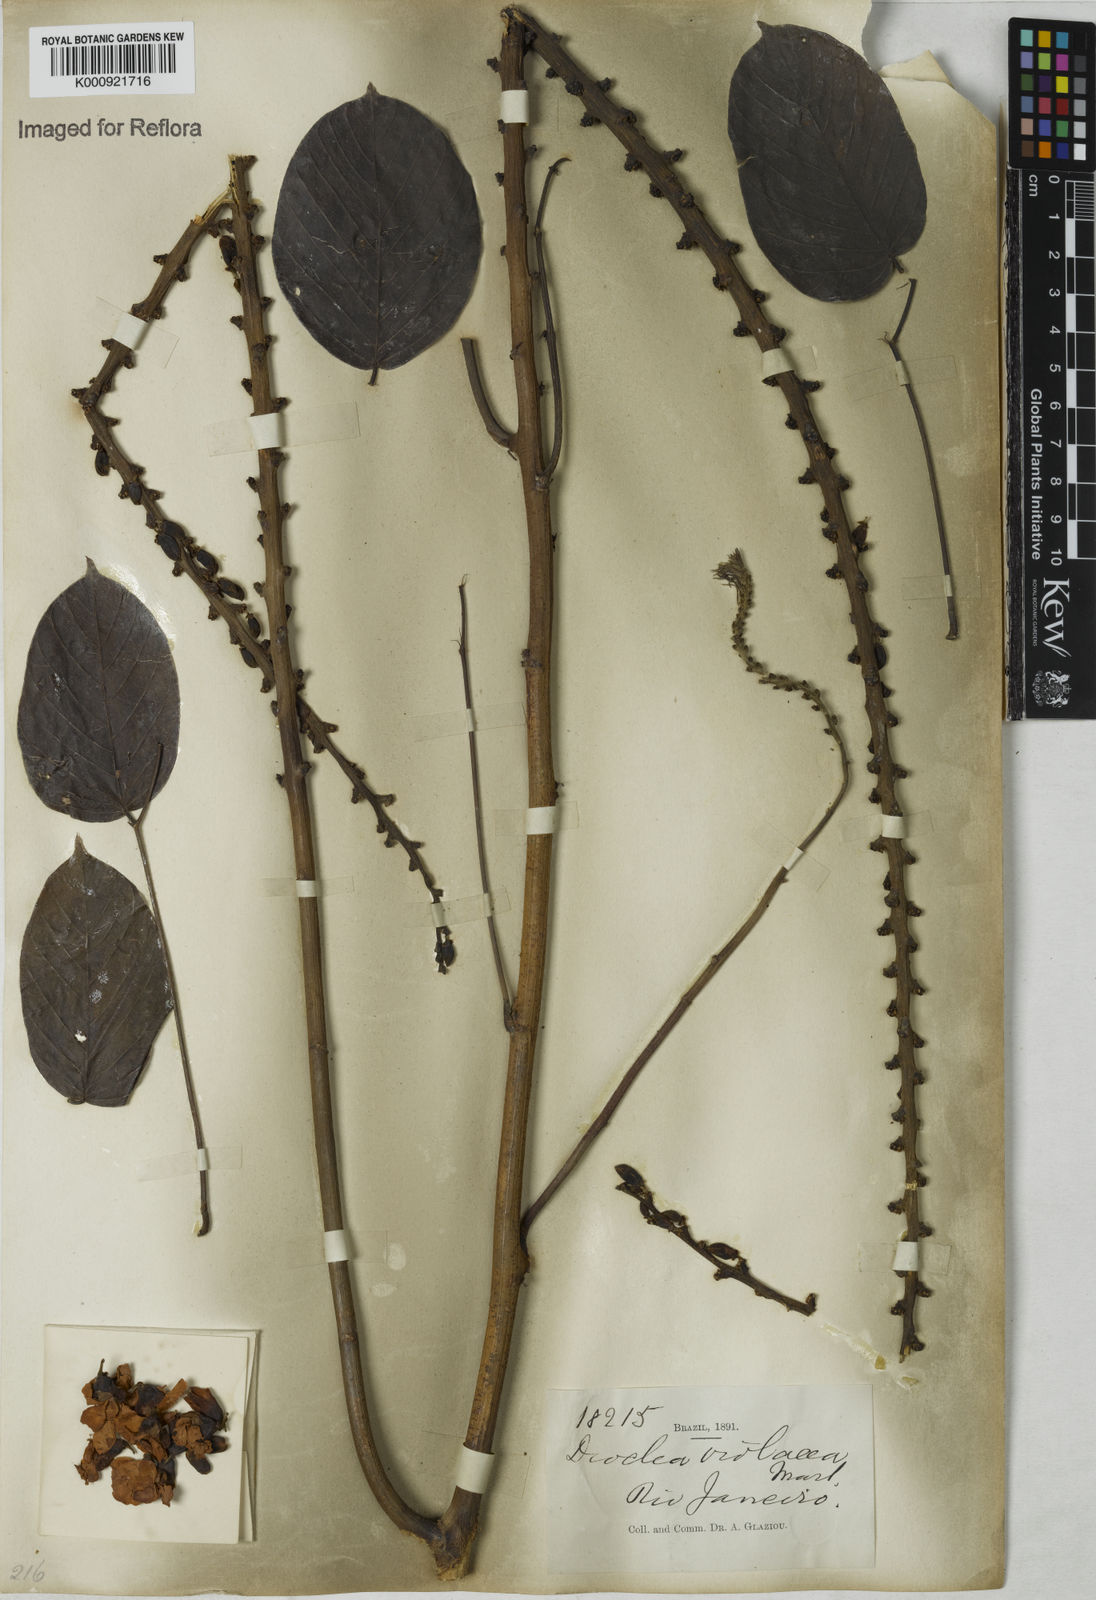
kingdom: Plantae
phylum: Tracheophyta
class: Magnoliopsida
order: Fabales
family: Fabaceae
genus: Macropsychanthus
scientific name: Macropsychanthus violaceus
